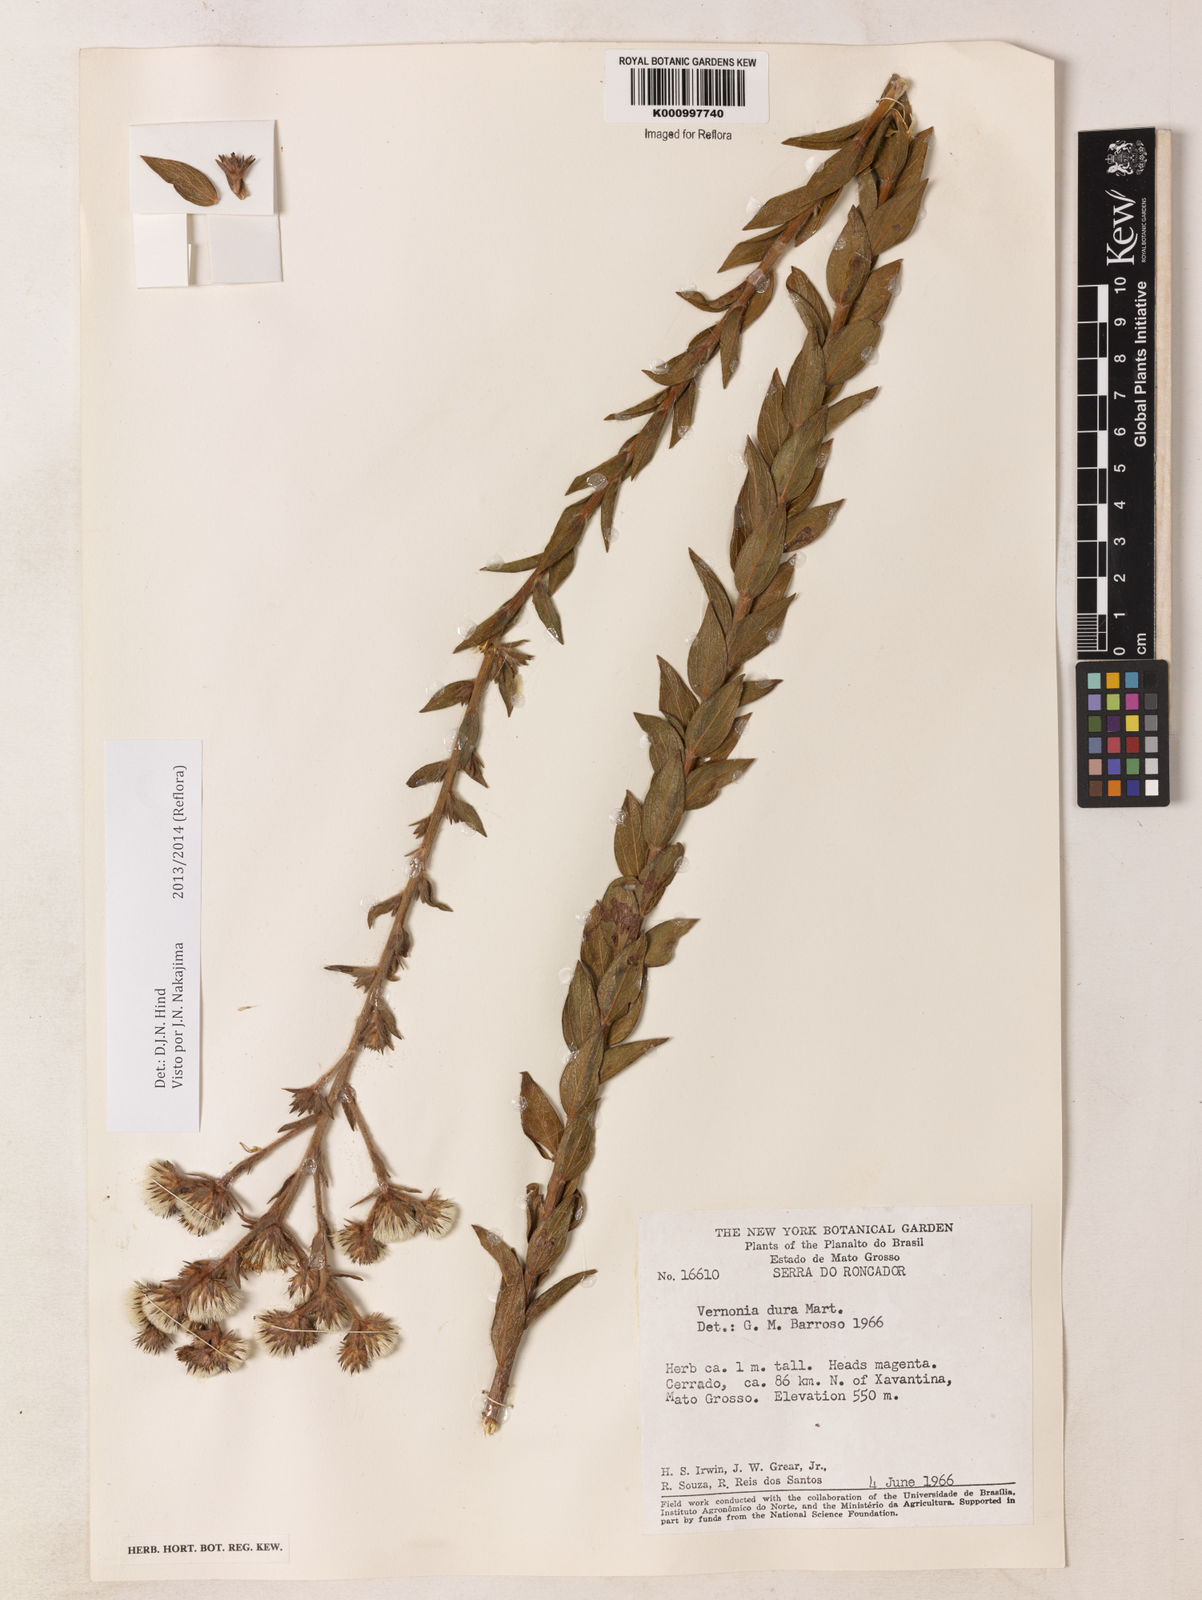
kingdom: Plantae
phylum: Tracheophyta
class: Magnoliopsida
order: Asterales
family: Asteraceae
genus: Lessingianthus
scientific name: Lessingianthus durus
